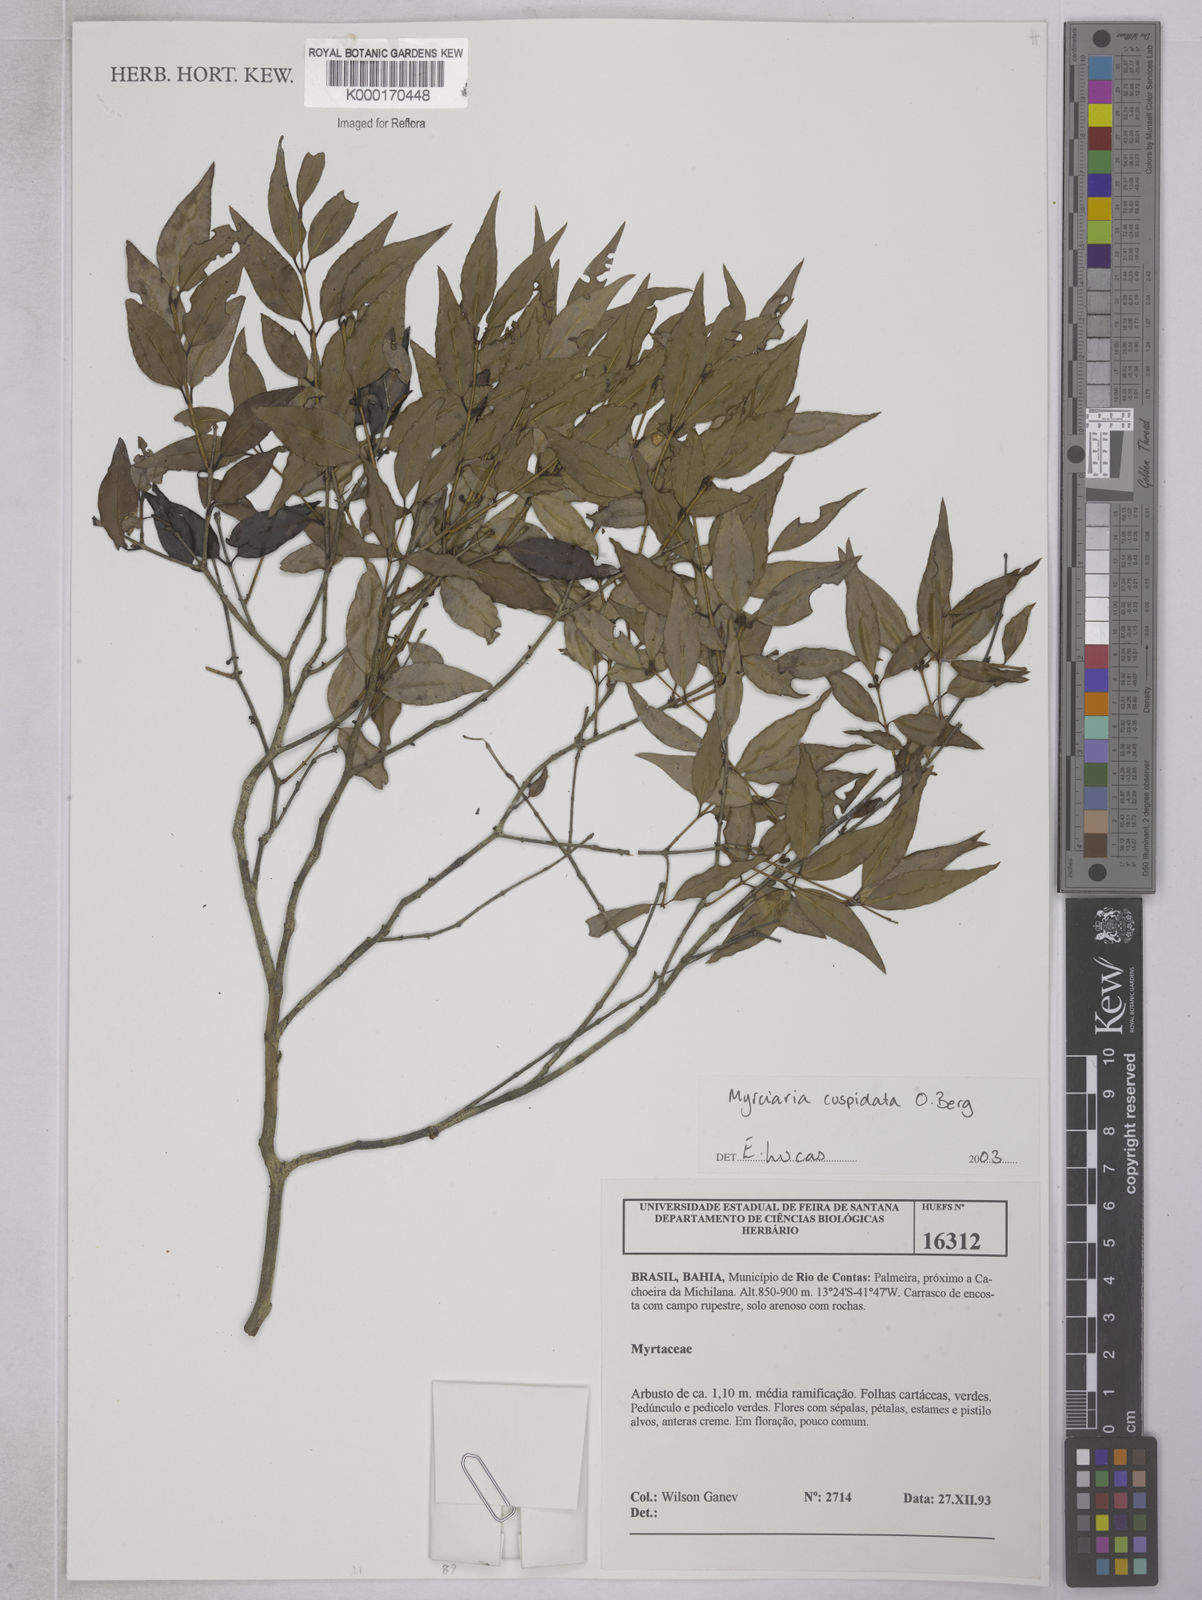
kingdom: Plantae
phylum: Tracheophyta
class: Magnoliopsida
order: Myrtales
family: Myrtaceae
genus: Myrciaria
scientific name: Myrciaria cuspidata
